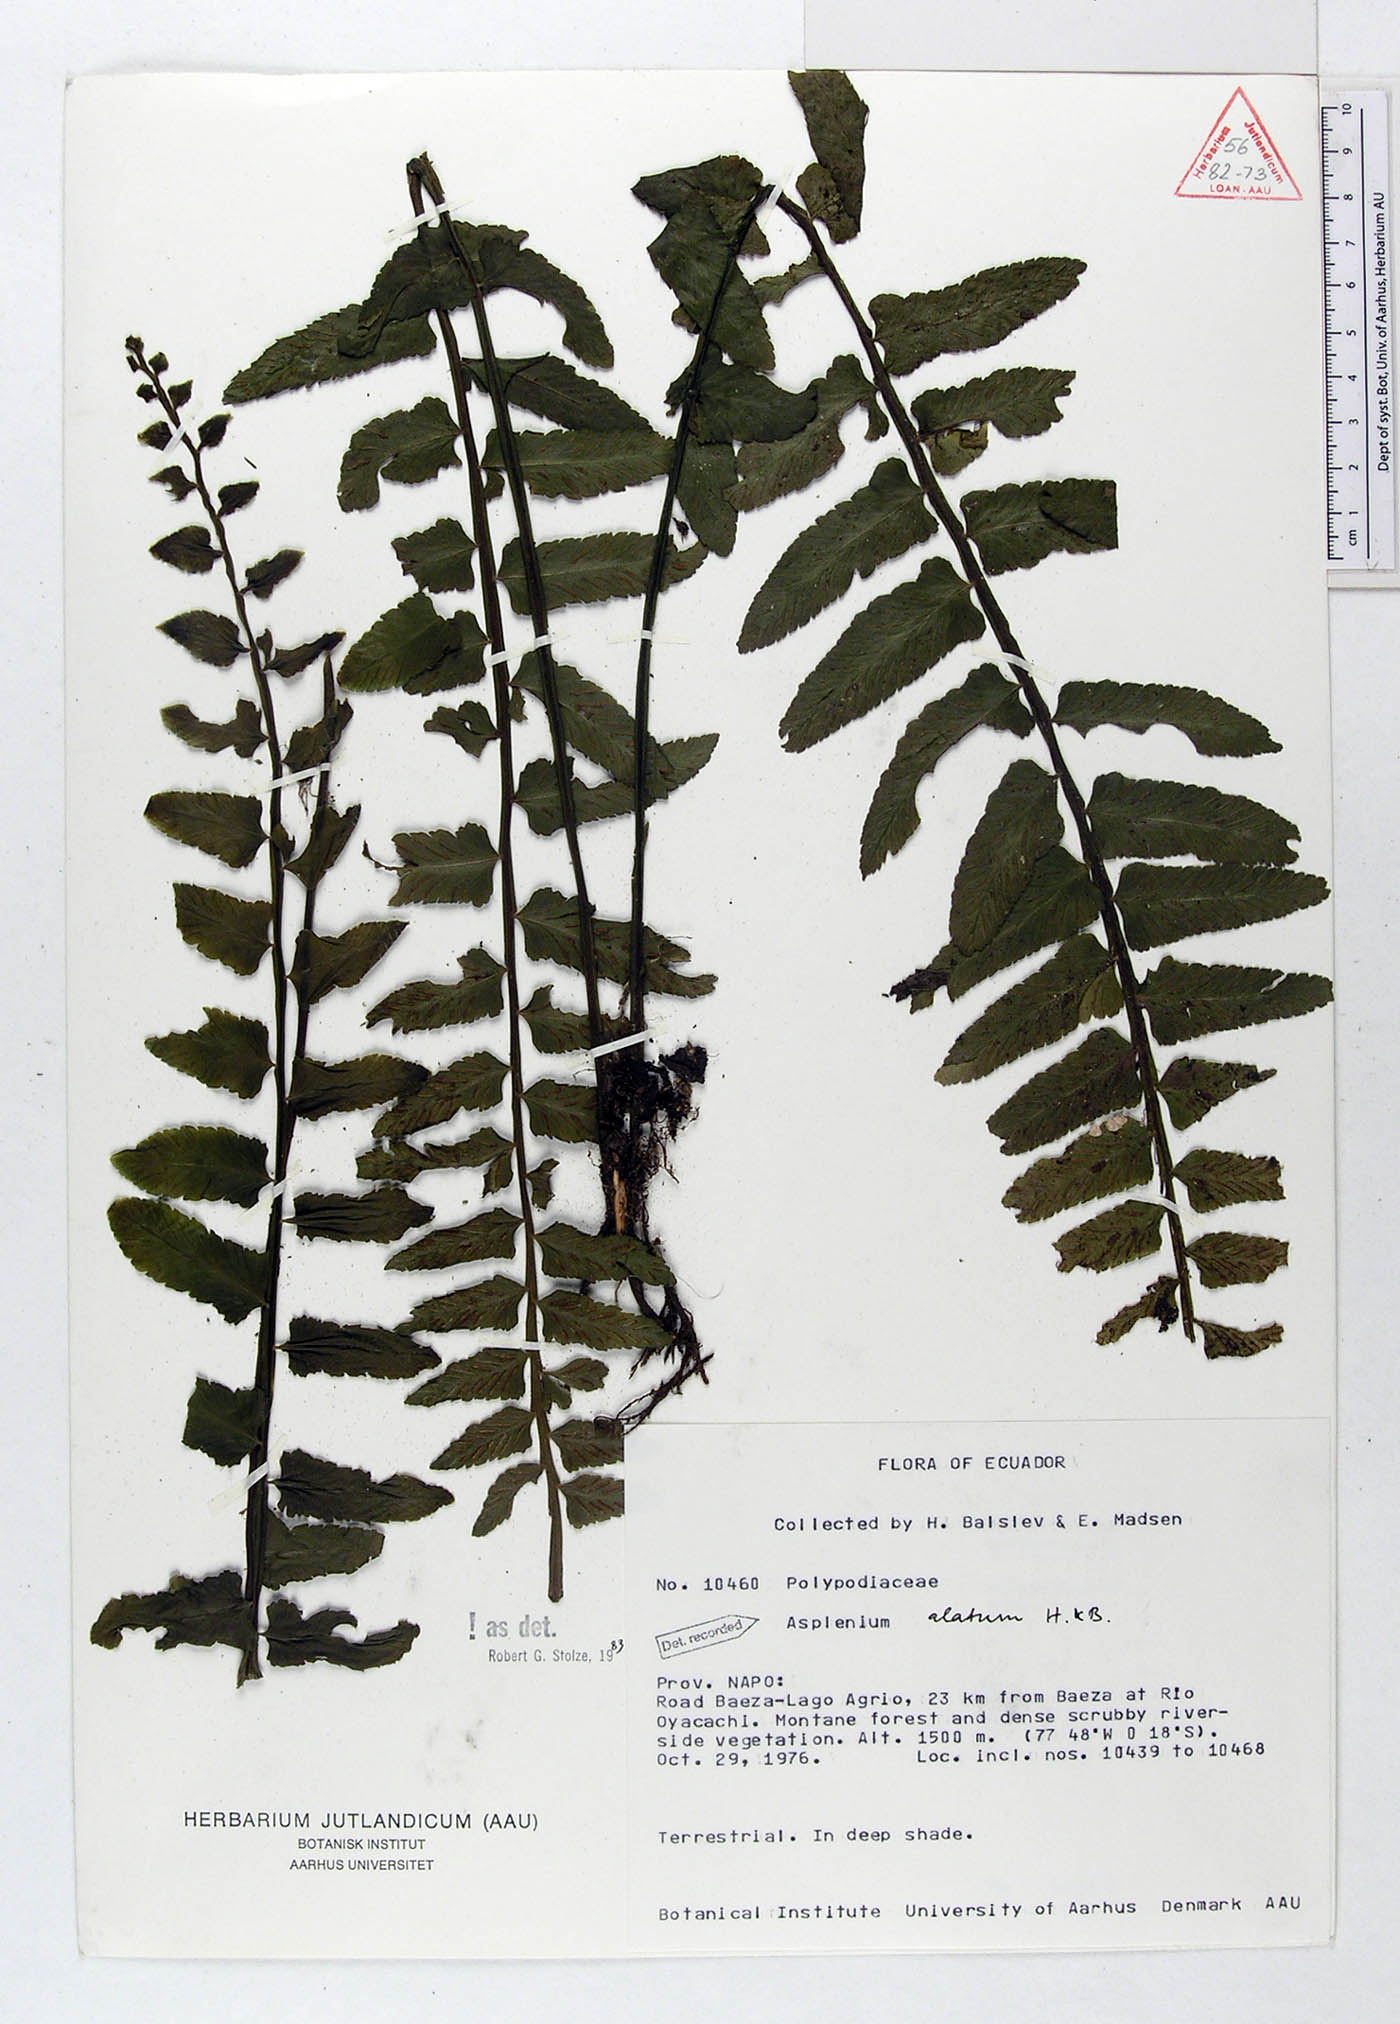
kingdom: Plantae
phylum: Tracheophyta
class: Polypodiopsida
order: Polypodiales
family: Aspleniaceae
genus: Asplenium
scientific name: Asplenium alatum
